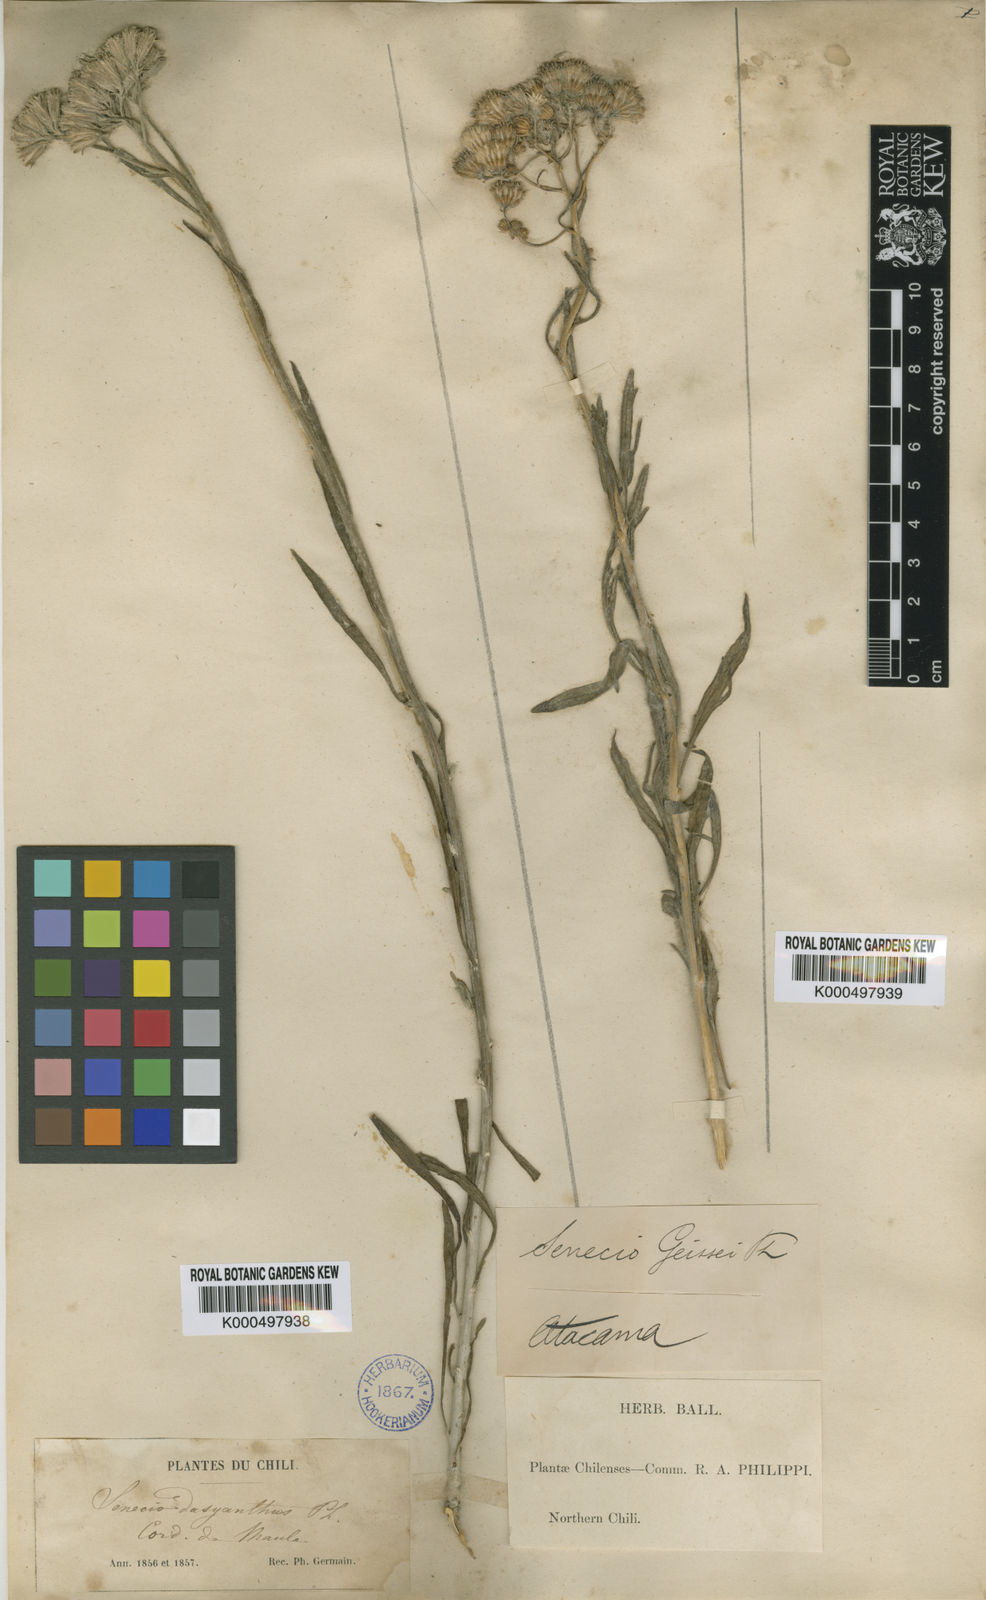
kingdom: Plantae
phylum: Tracheophyta
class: Magnoliopsida
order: Asterales
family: Asteraceae
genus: Senecio
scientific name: Senecio proteus
